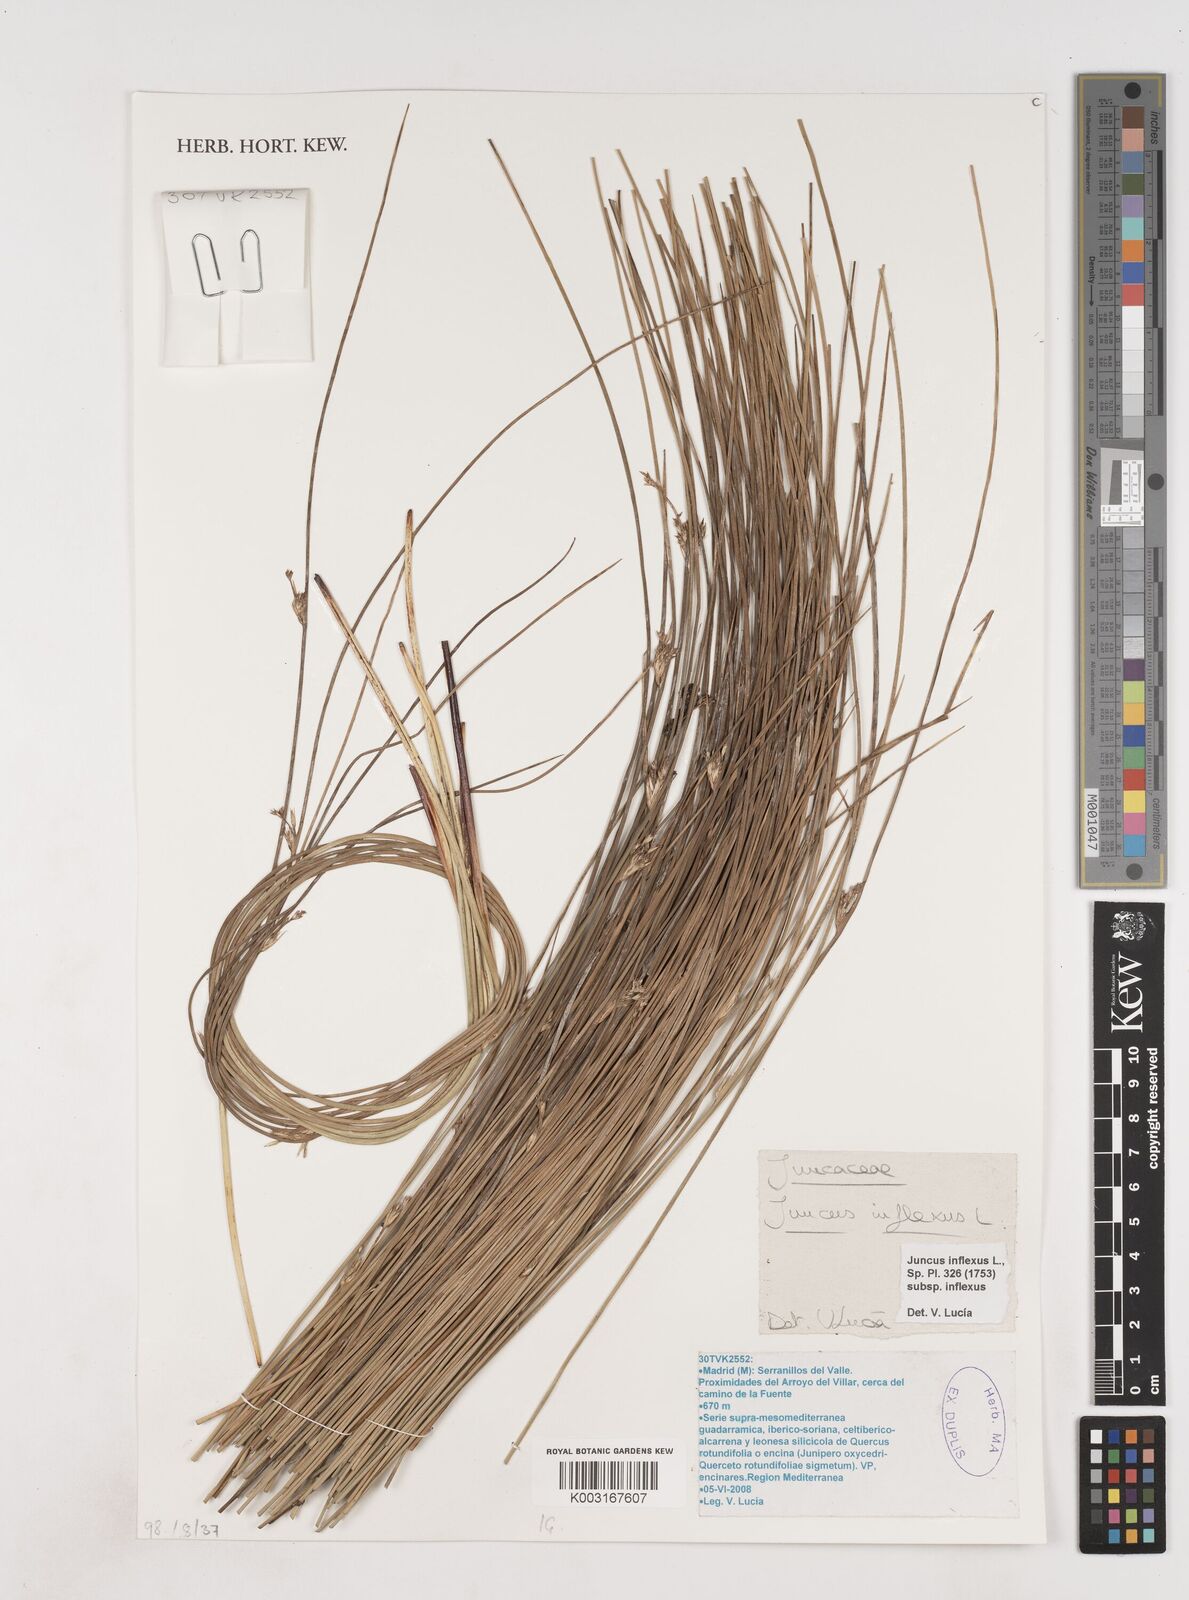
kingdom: Plantae
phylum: Tracheophyta
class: Liliopsida
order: Poales
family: Juncaceae
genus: Juncus
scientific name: Juncus inflexus
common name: Hard rush
